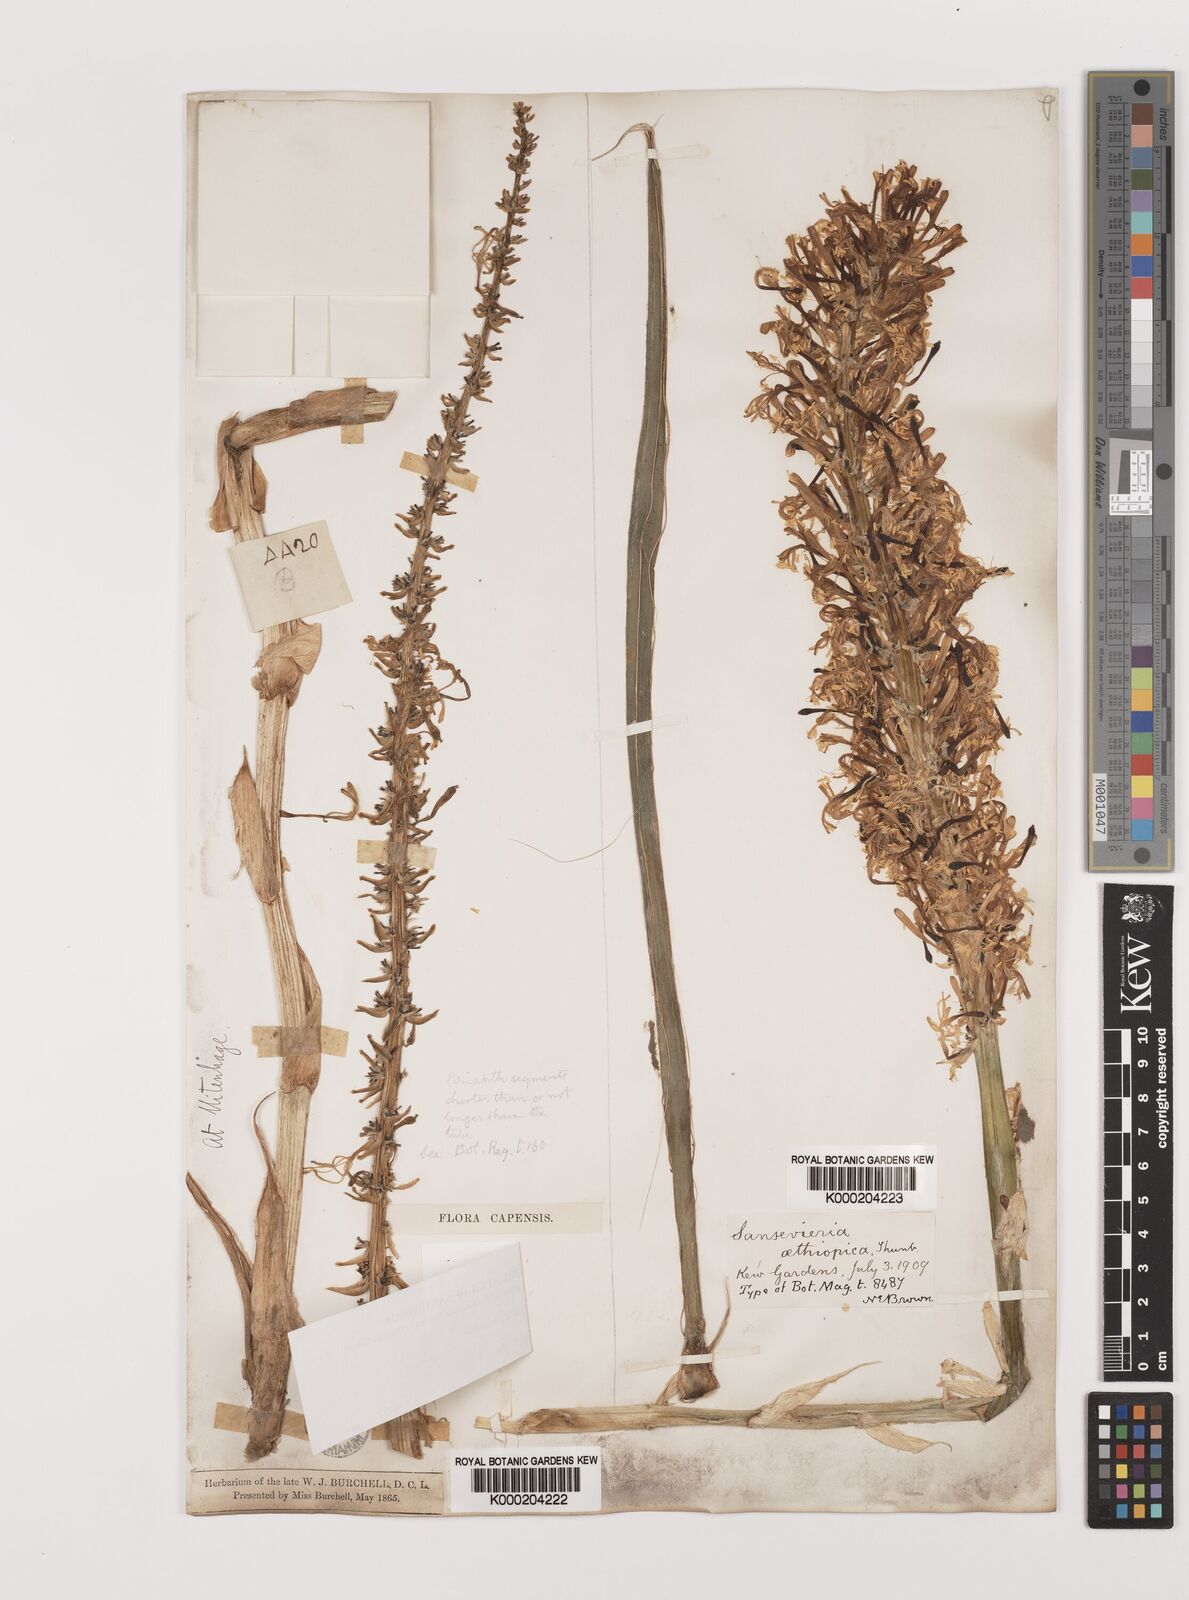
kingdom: Plantae
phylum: Tracheophyta
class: Liliopsida
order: Asparagales
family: Asparagaceae
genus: Dracaena
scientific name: Dracaena aethiopica
